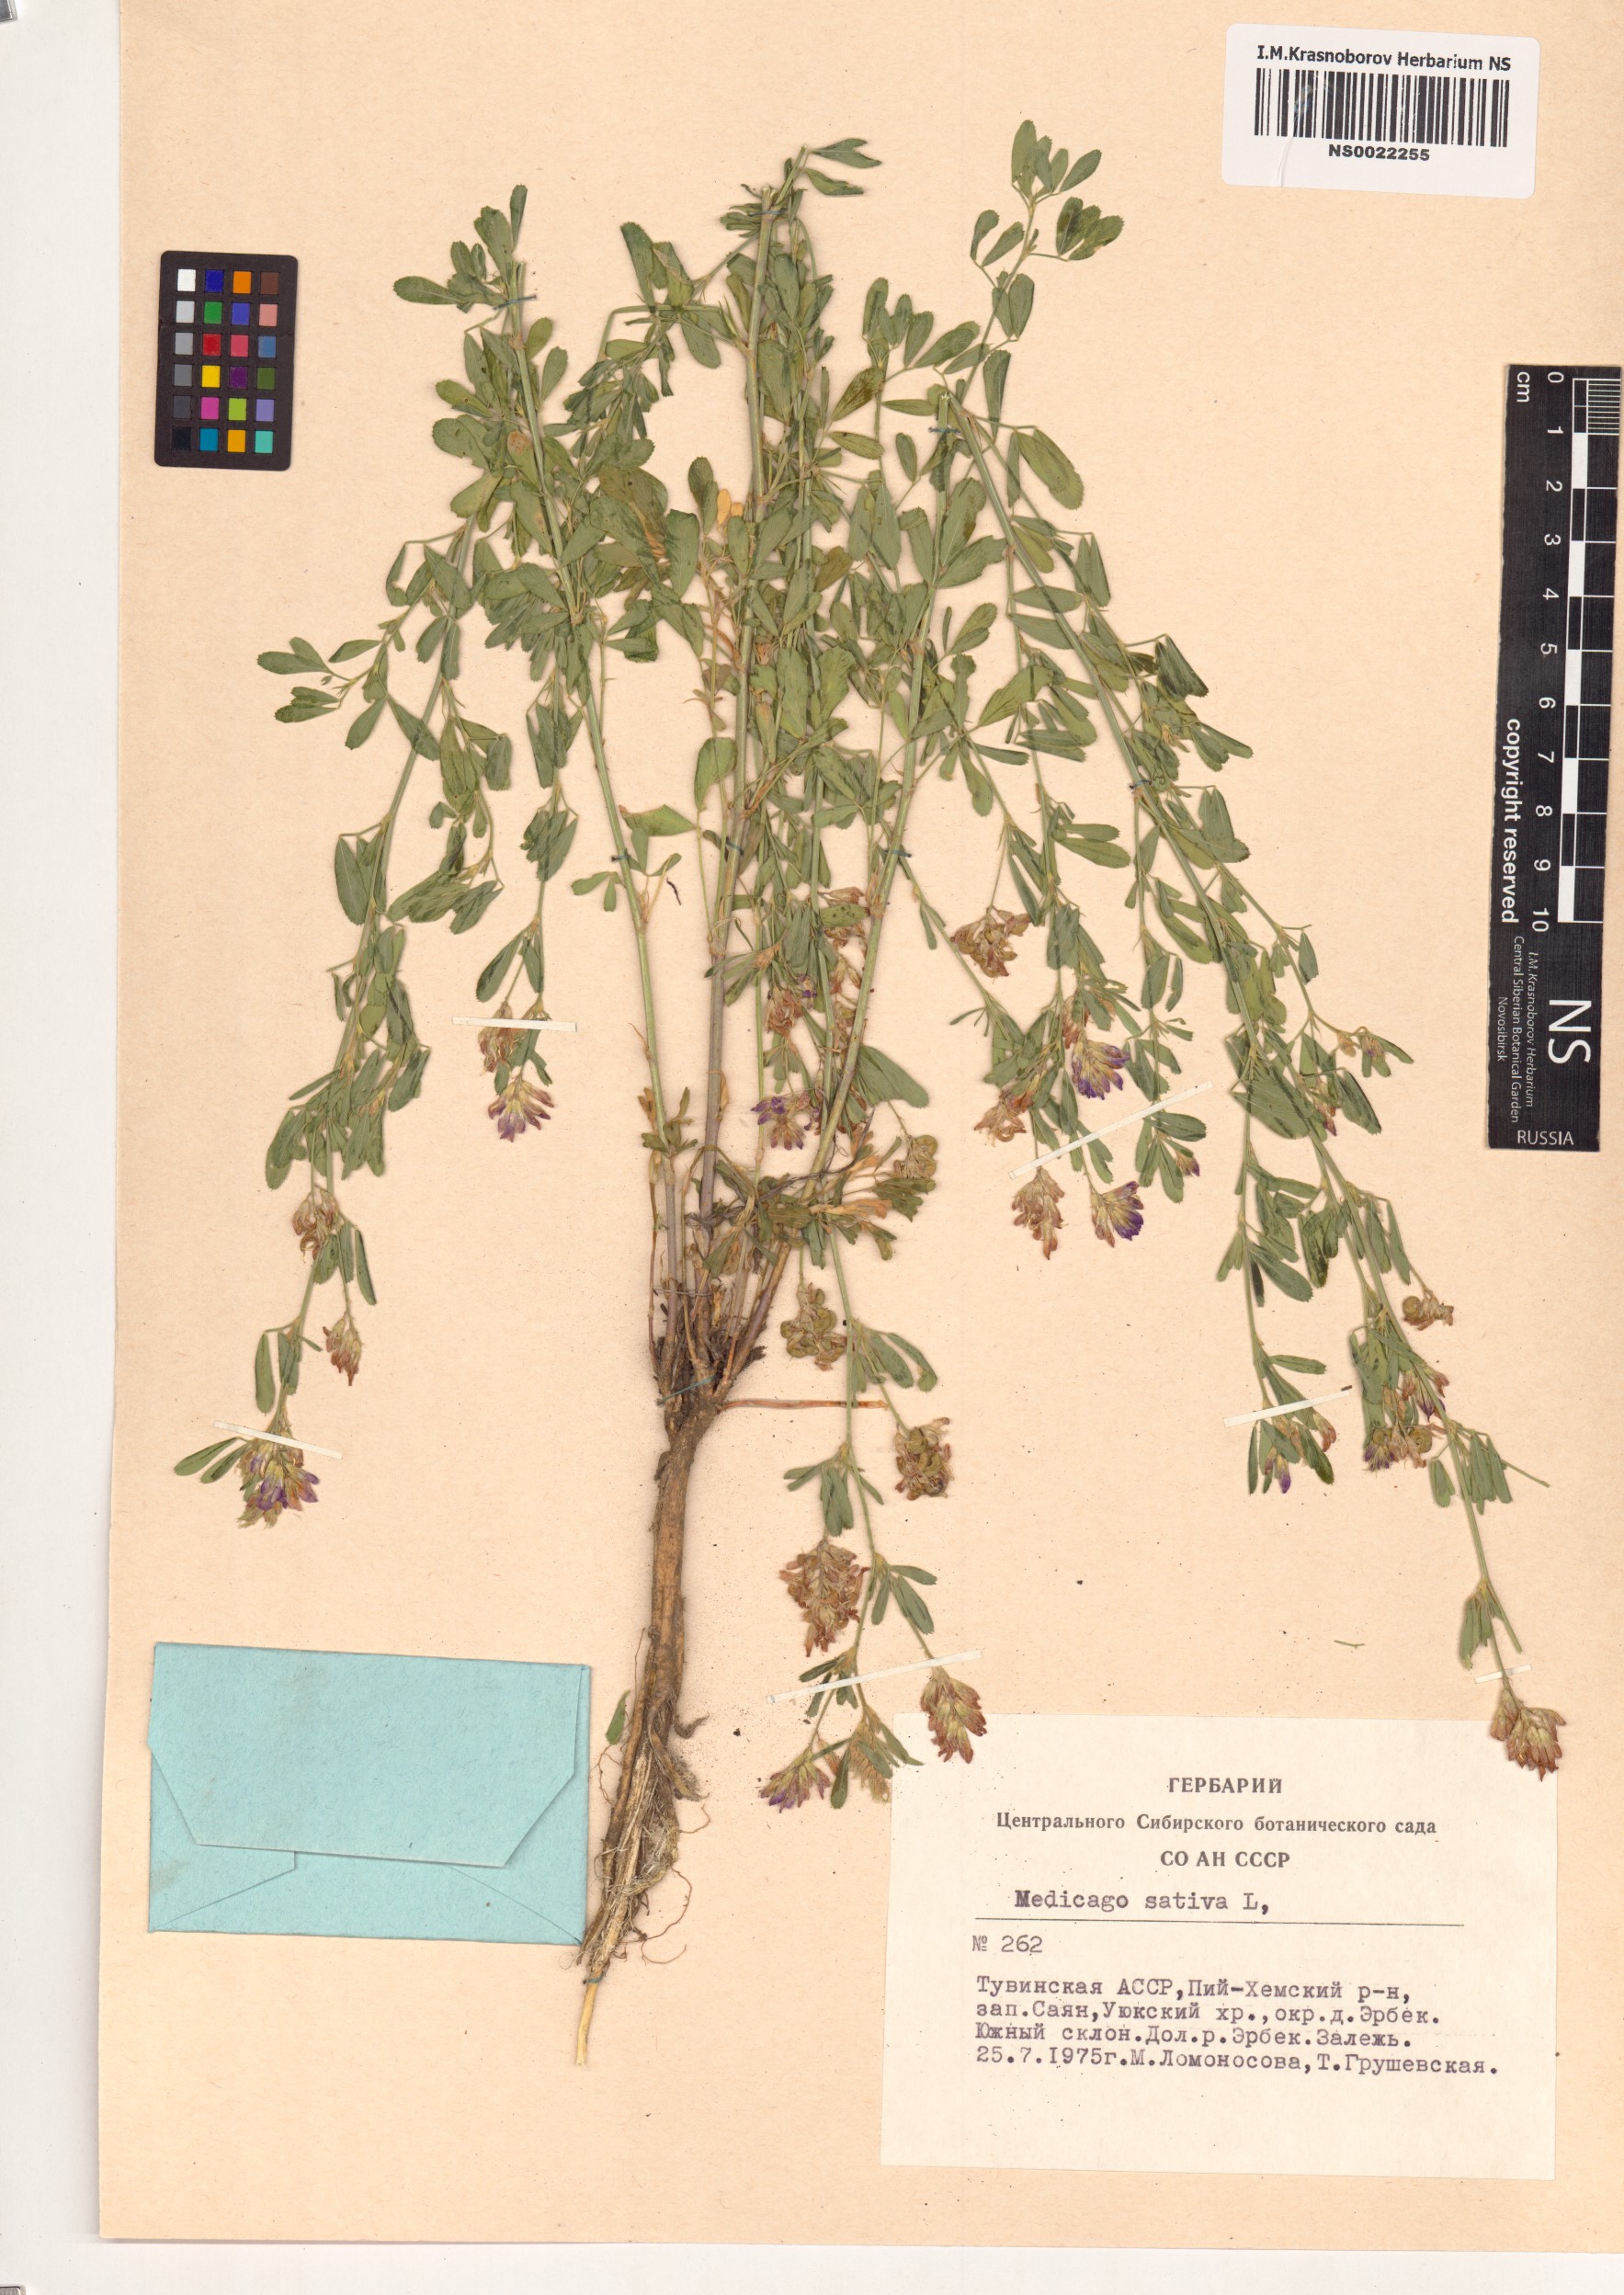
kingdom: Plantae
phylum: Tracheophyta
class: Magnoliopsida
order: Fabales
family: Fabaceae
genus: Medicago
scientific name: Medicago sativa
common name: Alfalfa
